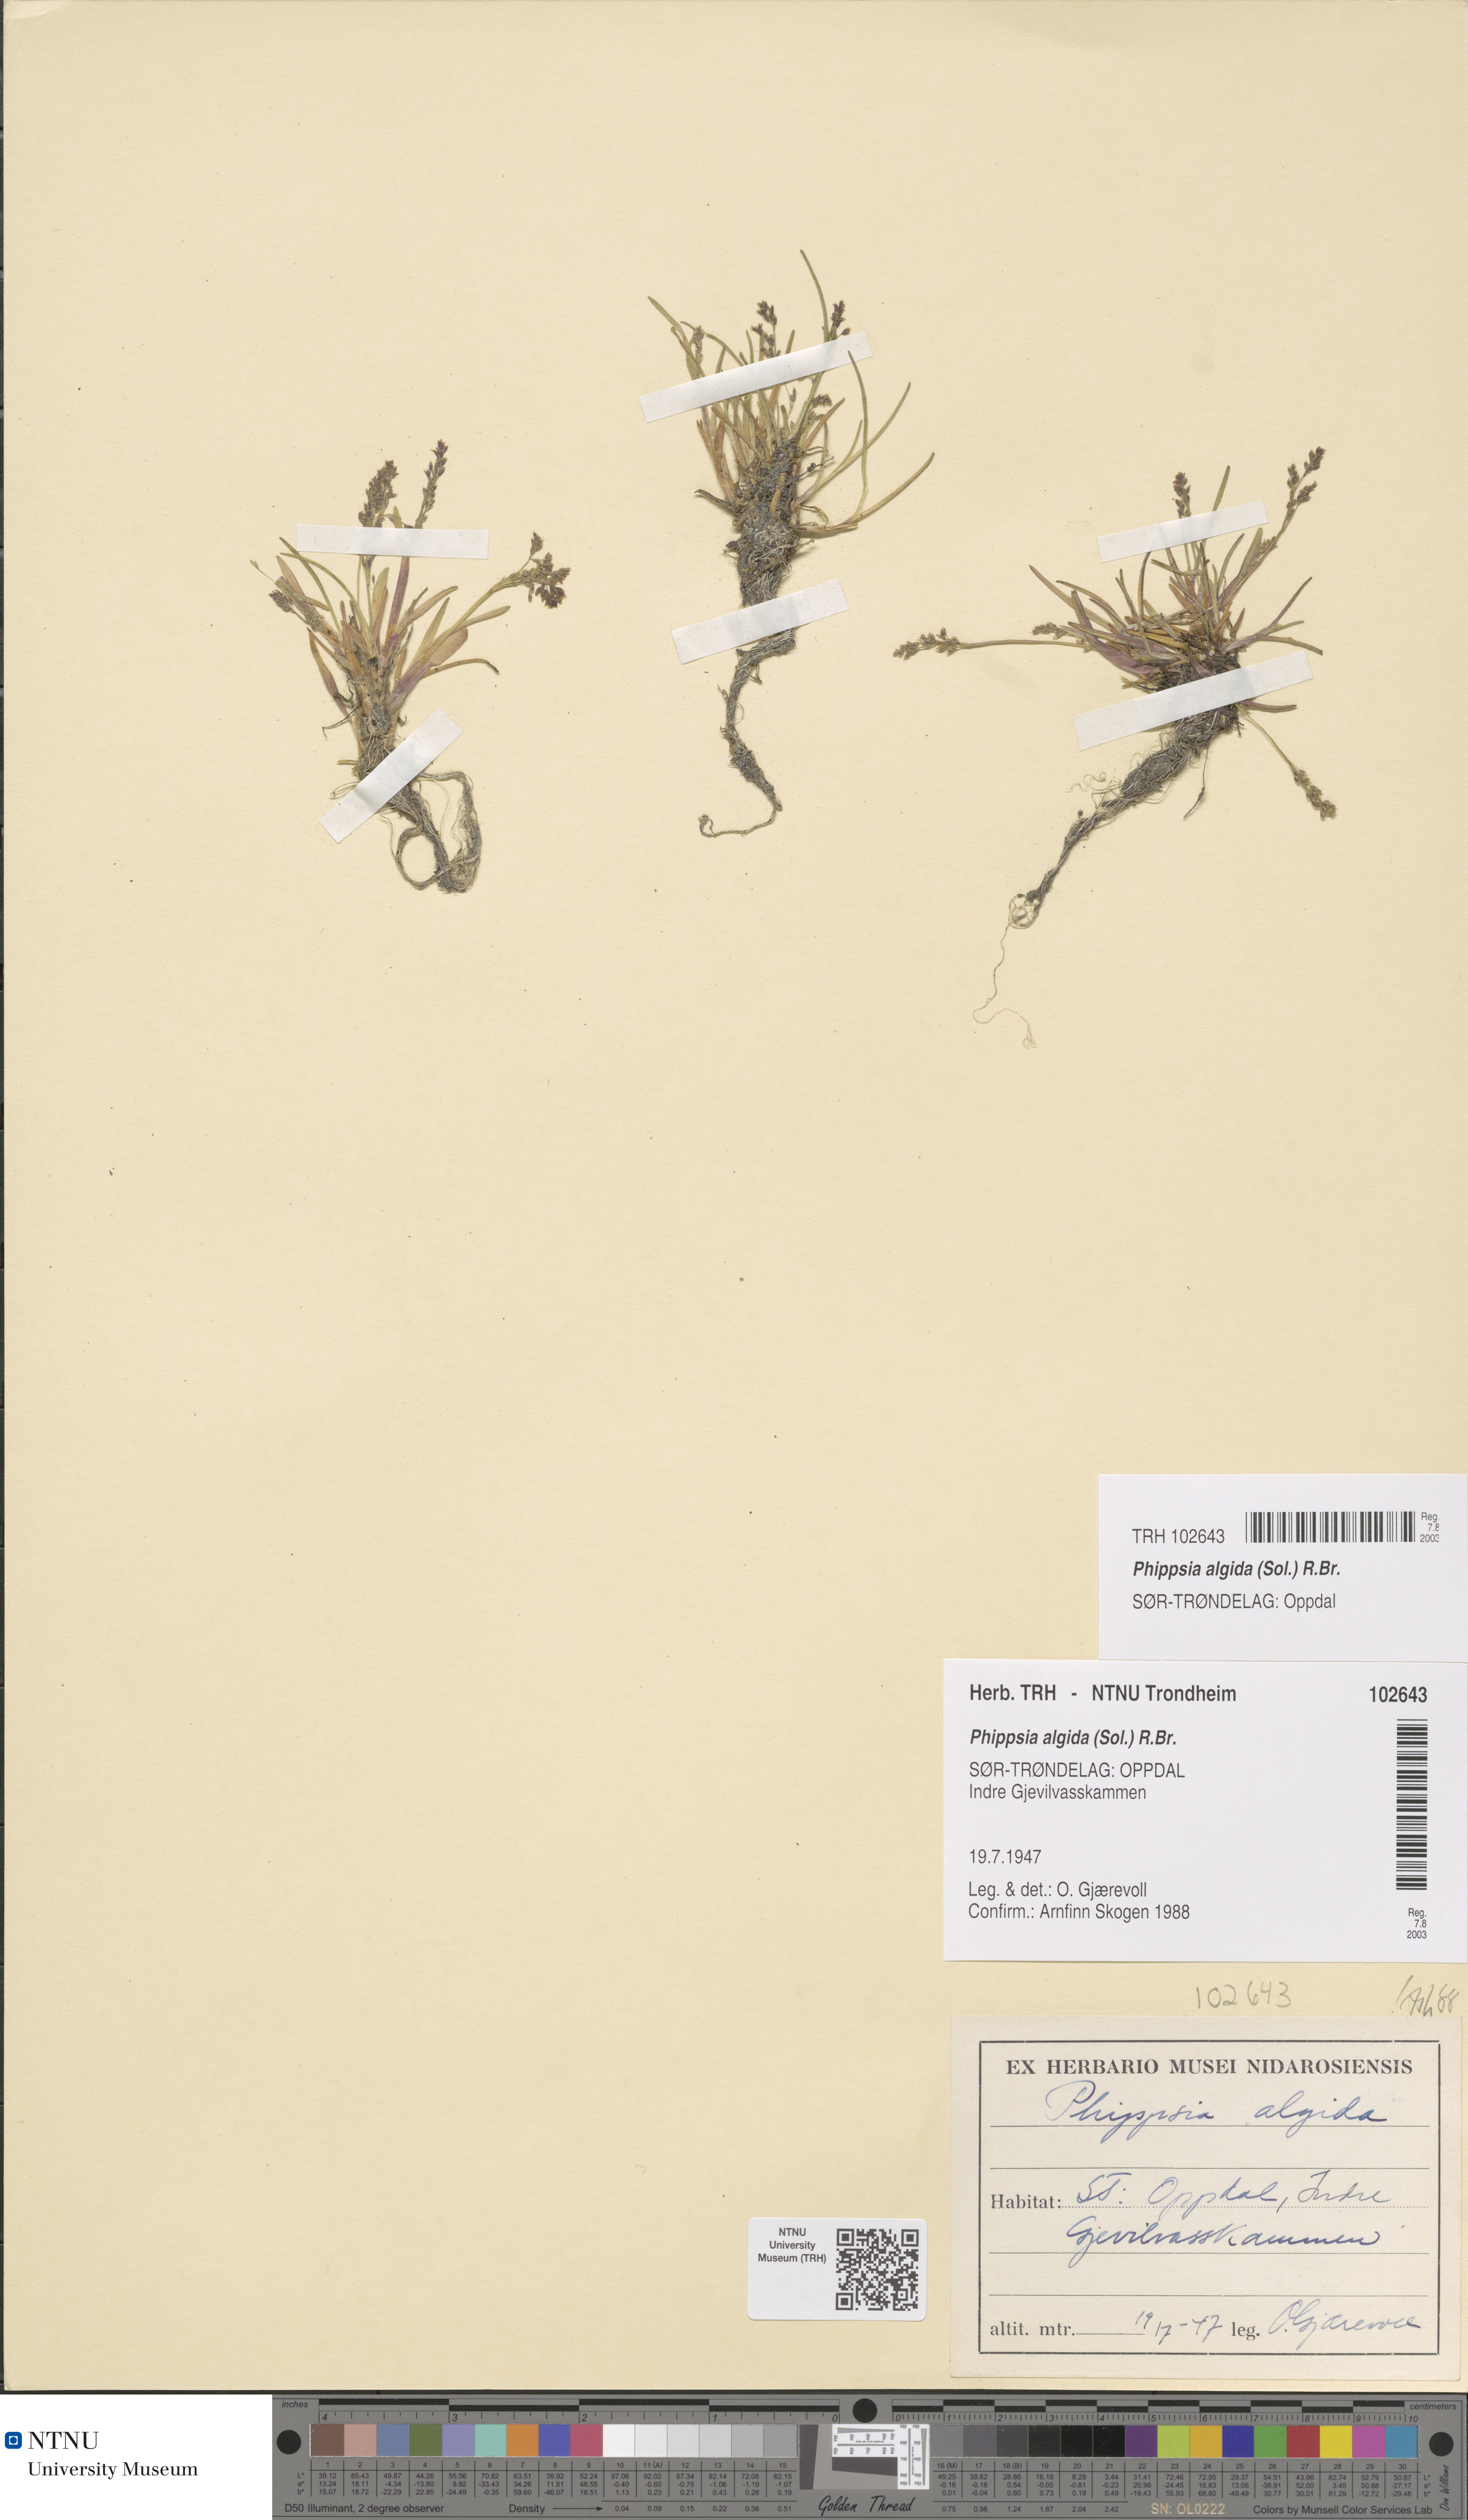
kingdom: Plantae
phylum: Tracheophyta
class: Liliopsida
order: Poales
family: Poaceae
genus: Phippsia
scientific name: Phippsia algida
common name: Ice grass
